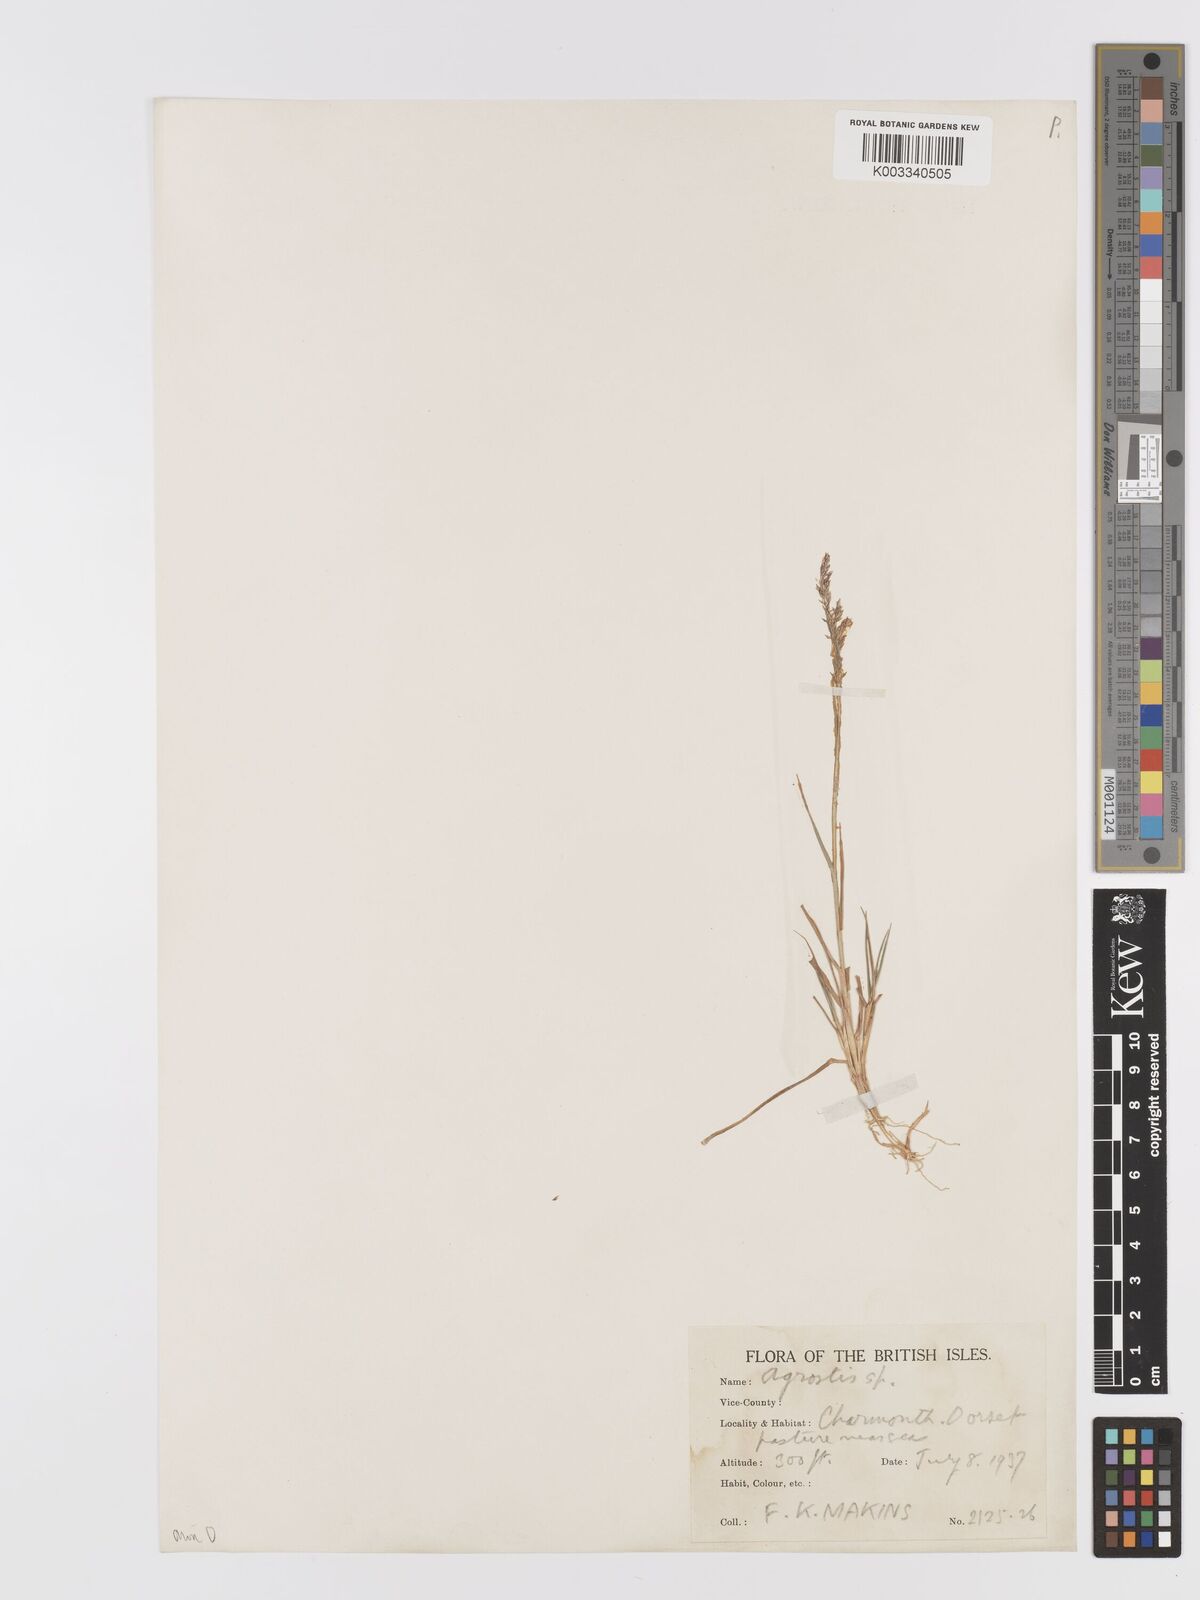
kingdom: Plantae
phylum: Tracheophyta
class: Liliopsida
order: Poales
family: Poaceae
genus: Agrostis
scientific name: Agrostis capillaris
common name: Colonial bentgrass
